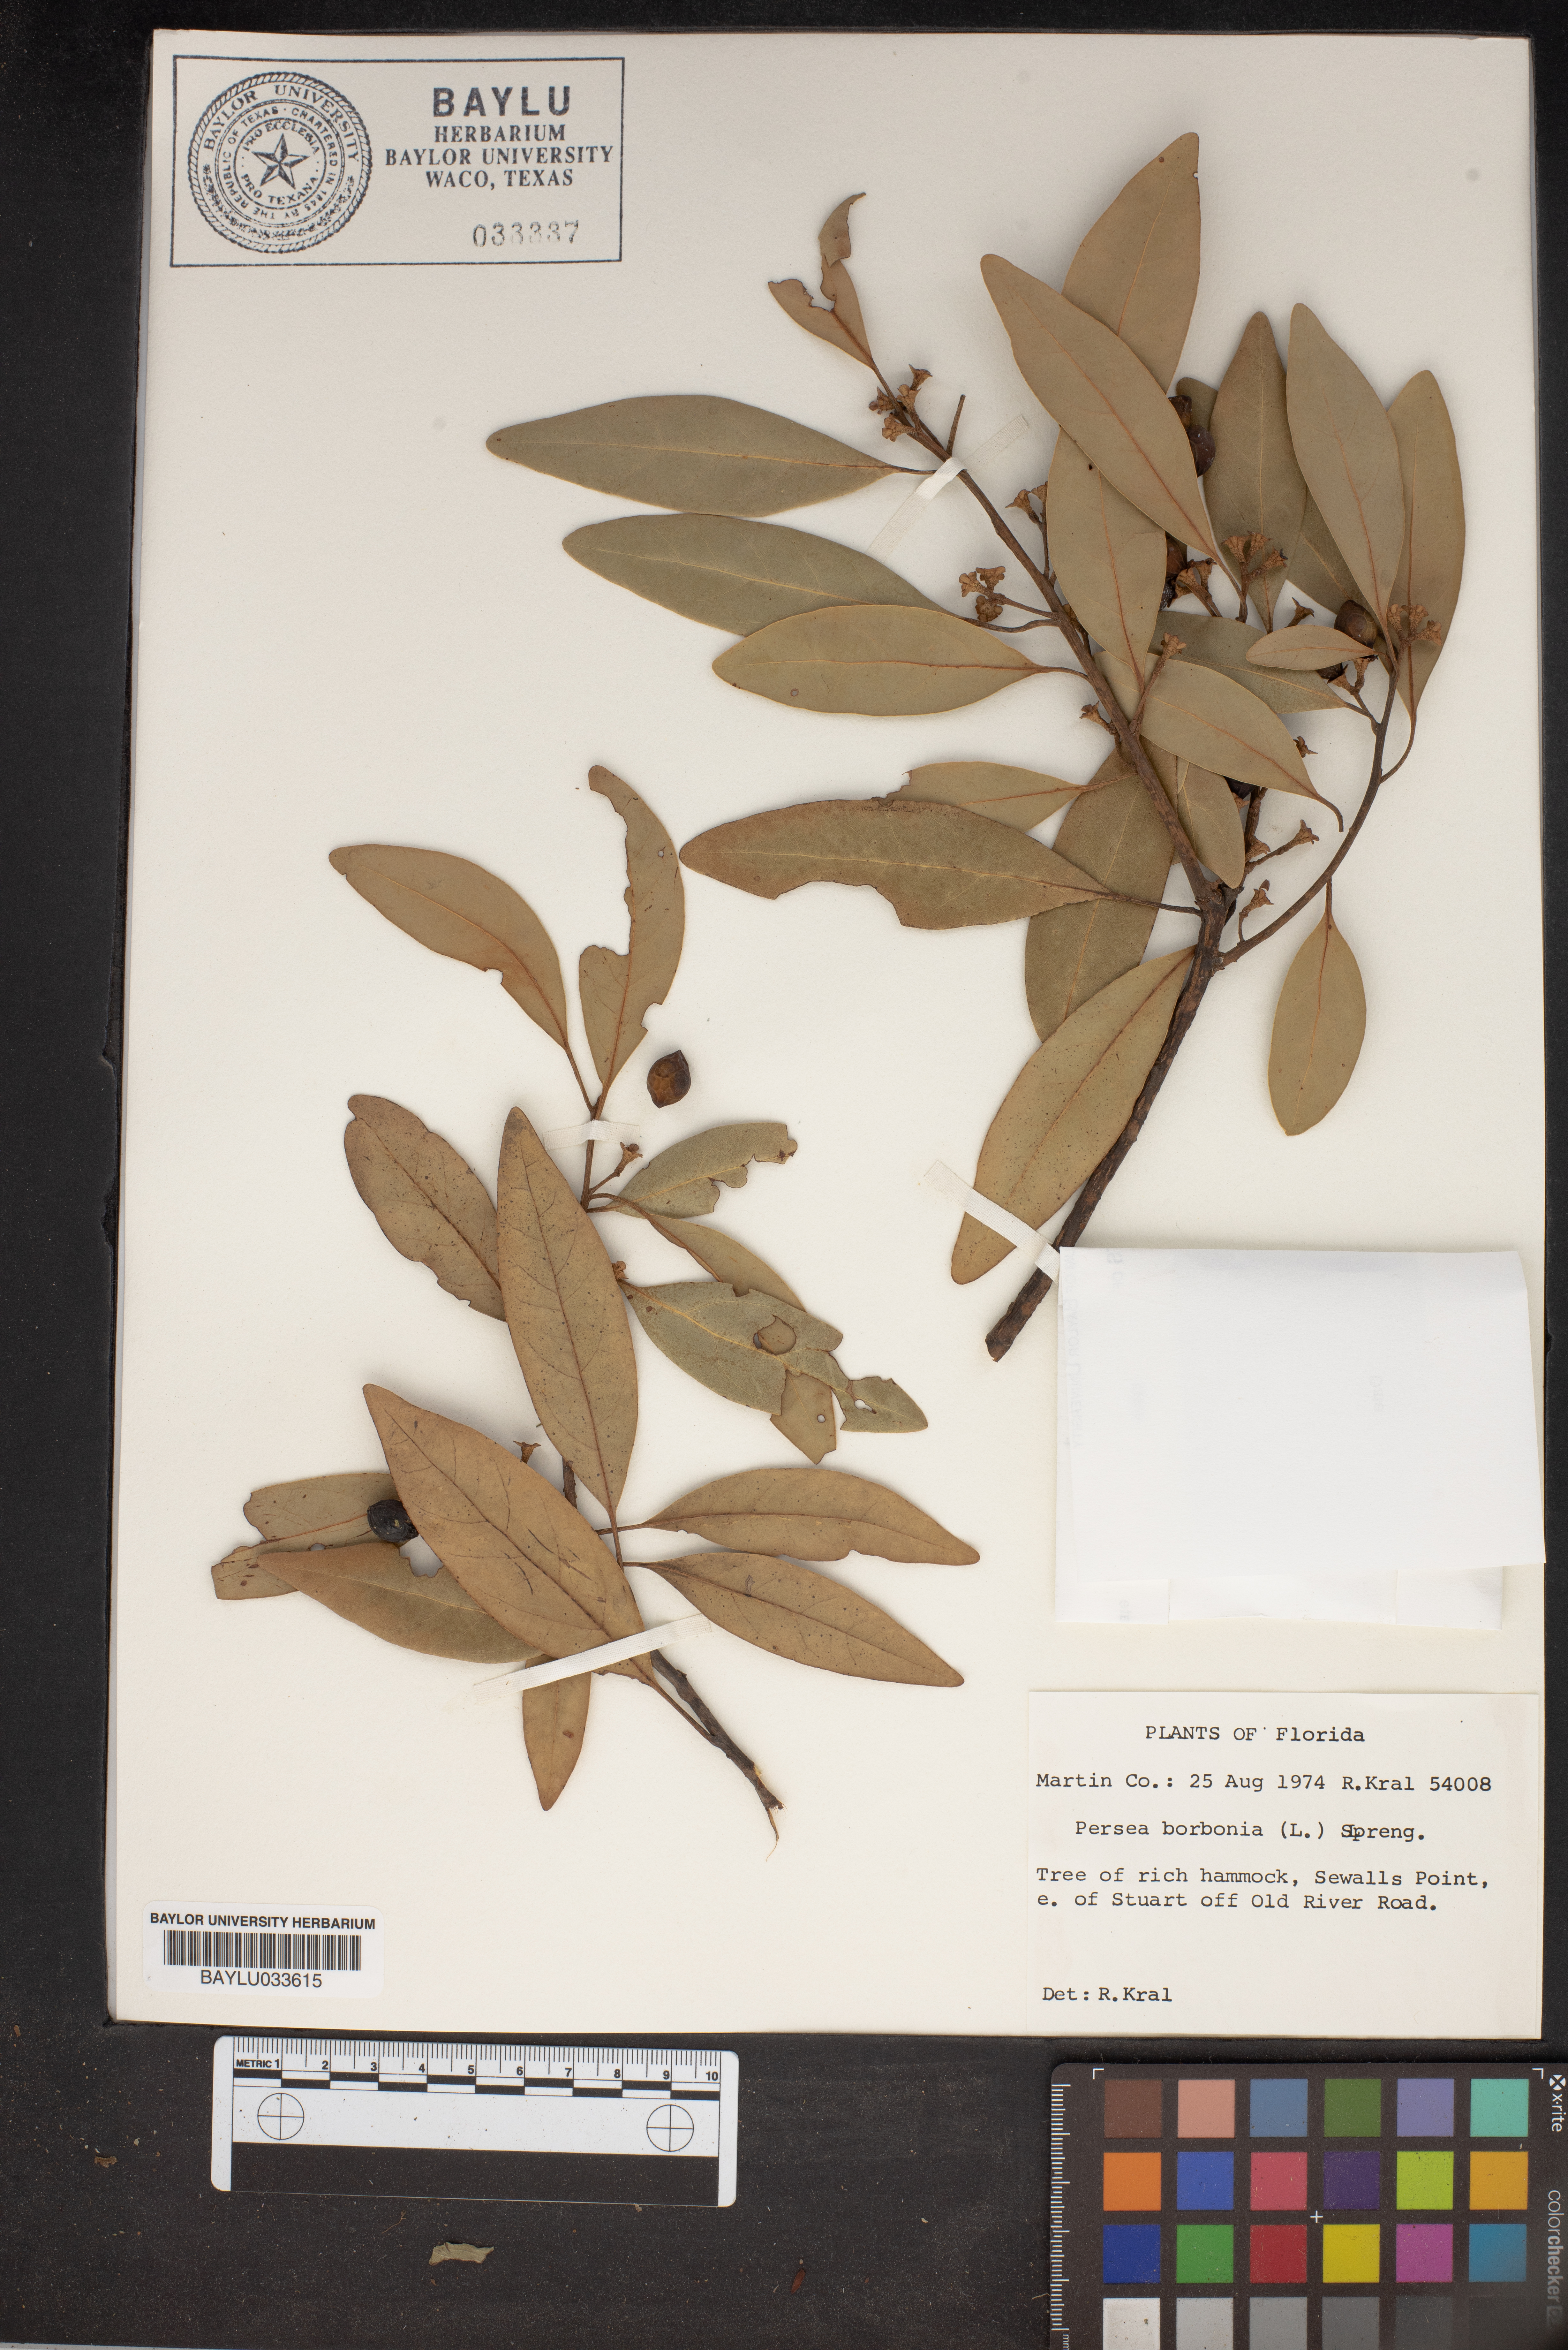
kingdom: Plantae
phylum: Tracheophyta
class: Magnoliopsida
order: Laurales
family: Lauraceae
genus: Persea
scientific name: Persea borbonia
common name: Redbay
